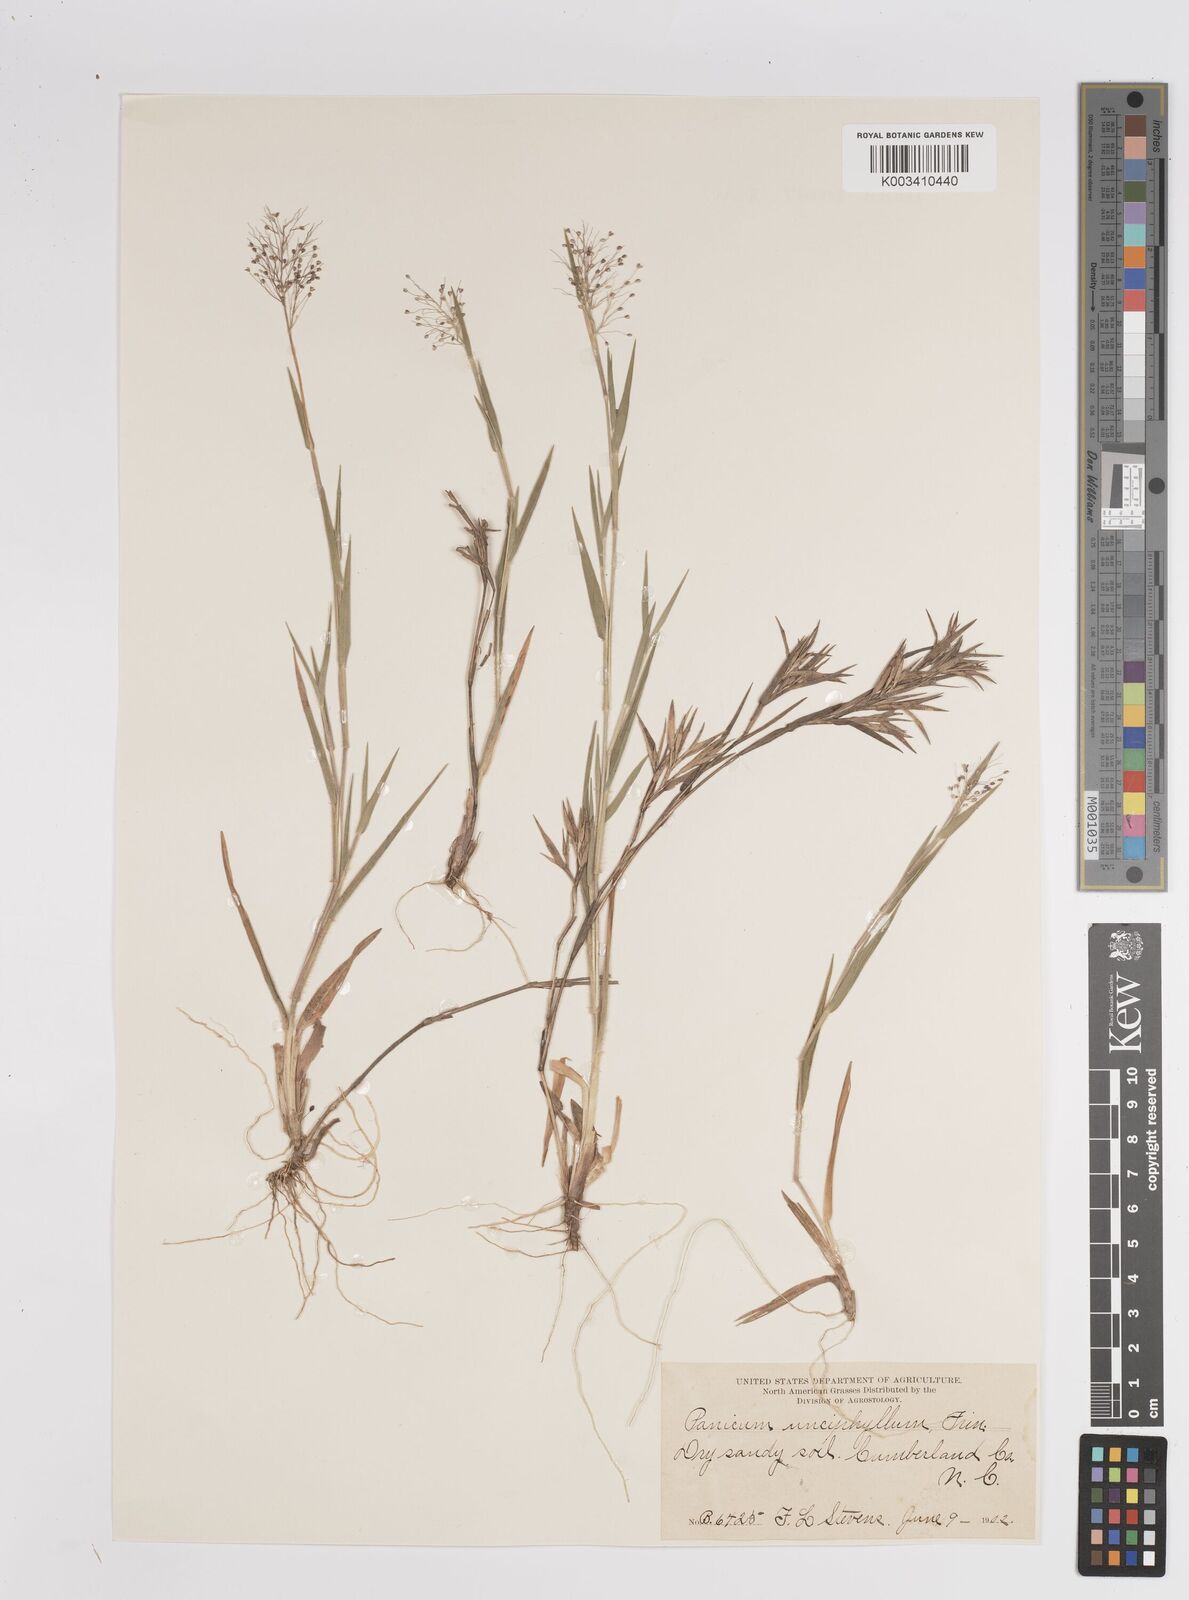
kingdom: Plantae
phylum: Tracheophyta
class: Liliopsida
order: Poales
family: Poaceae
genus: Dichanthelium
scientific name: Dichanthelium ensifolium
